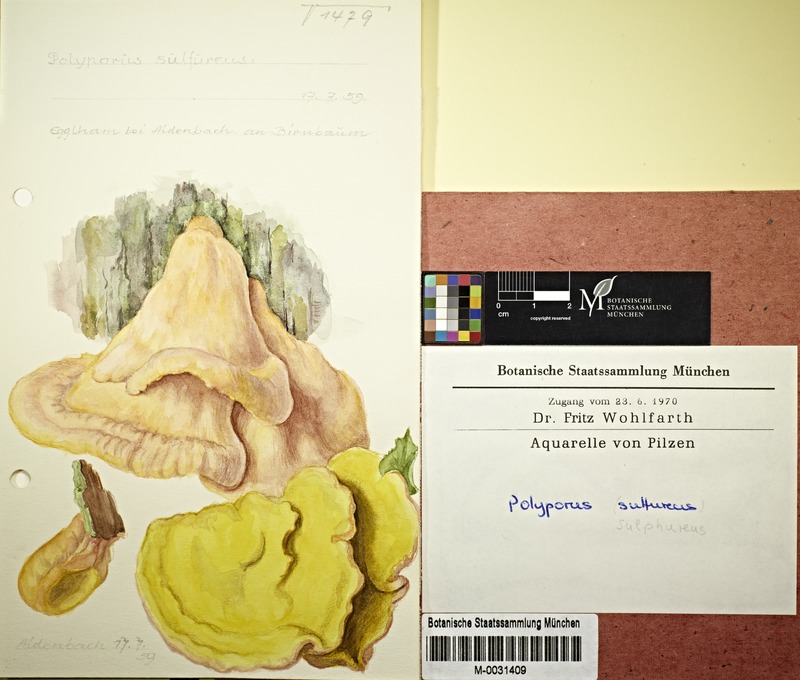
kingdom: Fungi
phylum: Basidiomycota
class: Agaricomycetes
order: Polyporales
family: Laetiporaceae
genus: Laetiporus
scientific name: Laetiporus sulphureus
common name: Chicken of the woods
